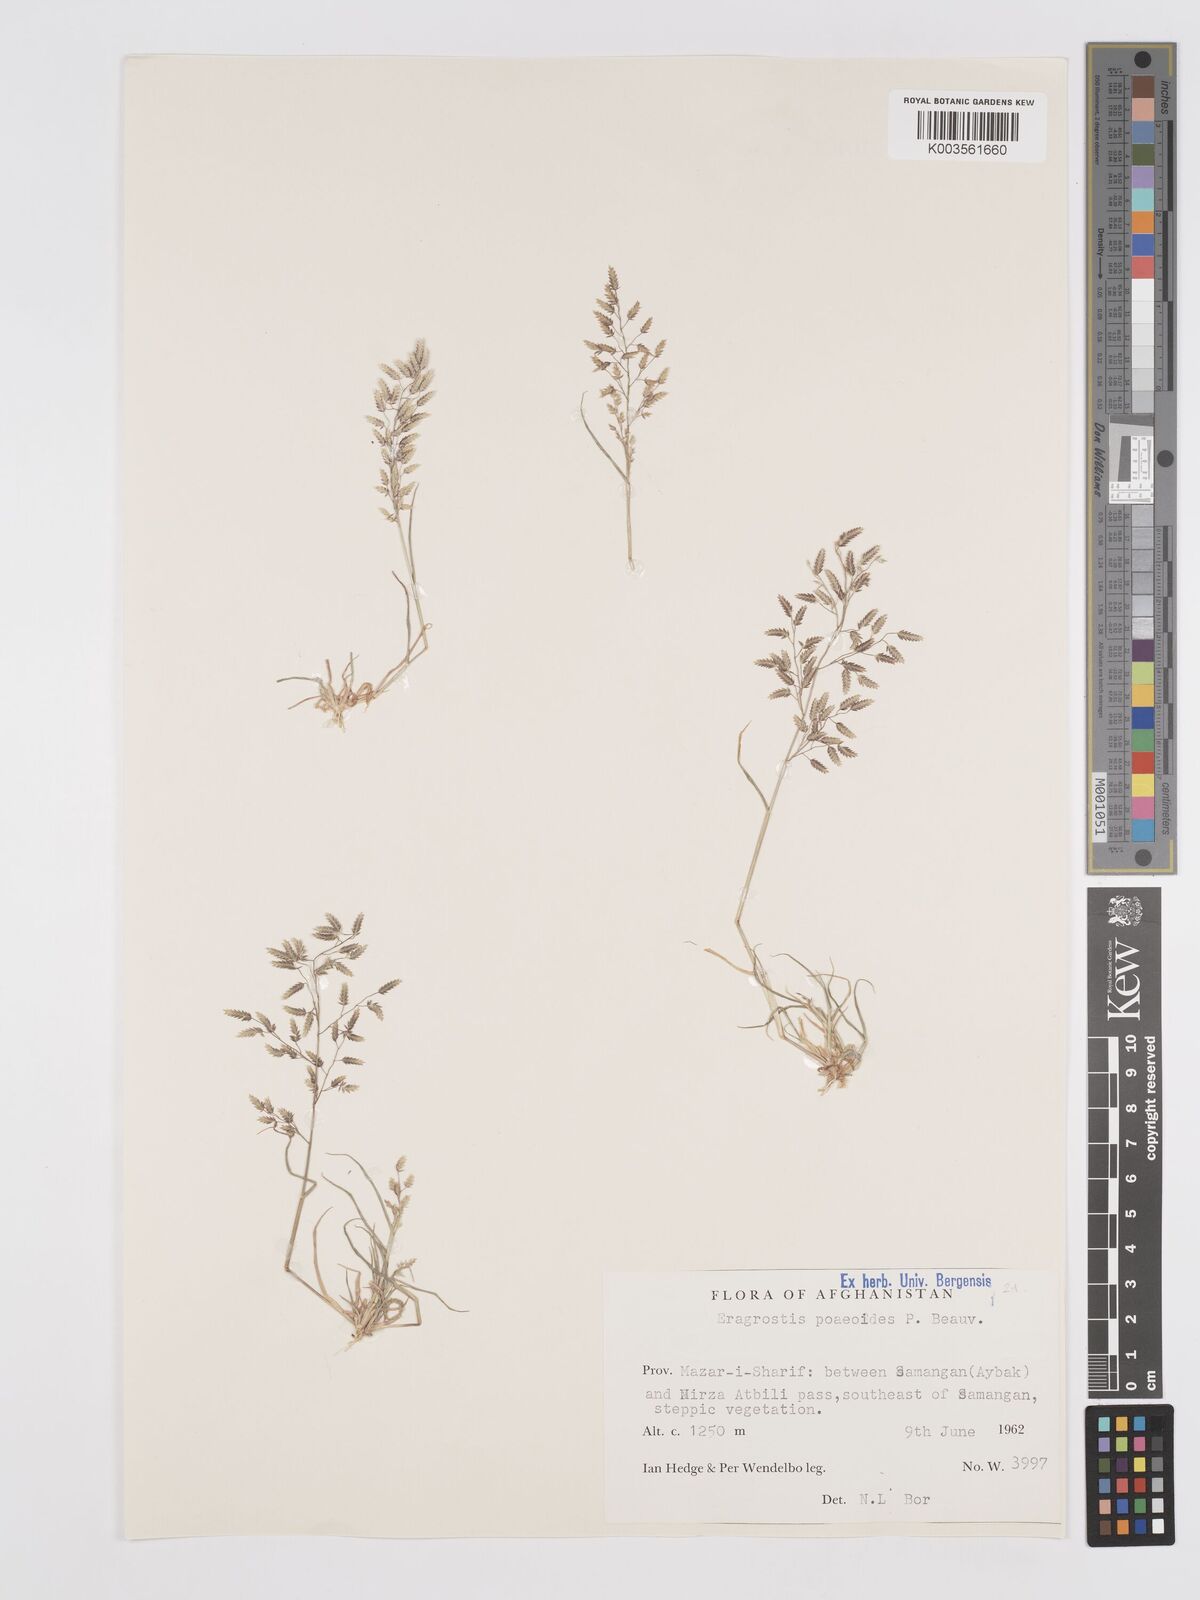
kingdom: Plantae
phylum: Tracheophyta
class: Liliopsida
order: Poales
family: Poaceae
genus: Eragrostis
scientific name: Eragrostis minor
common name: Small love-grass
